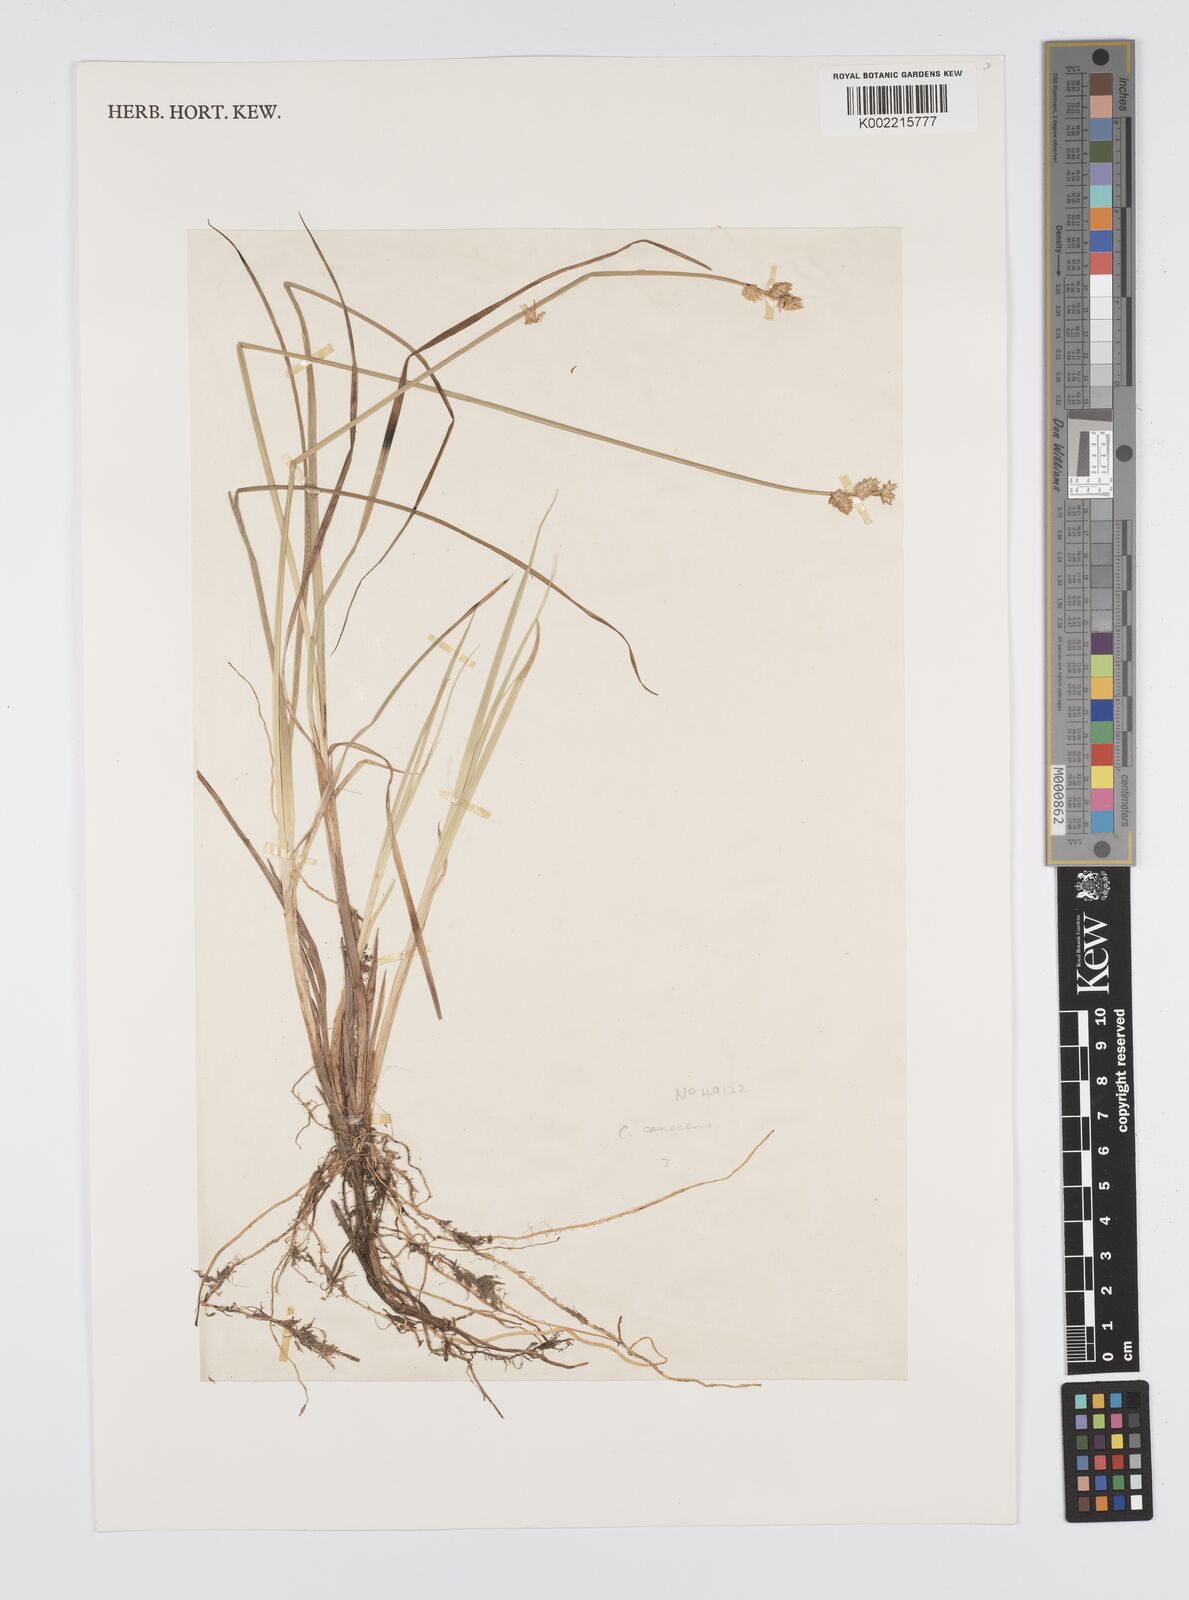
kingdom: Plantae
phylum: Tracheophyta
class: Liliopsida
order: Poales
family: Cyperaceae
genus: Carex
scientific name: Carex
